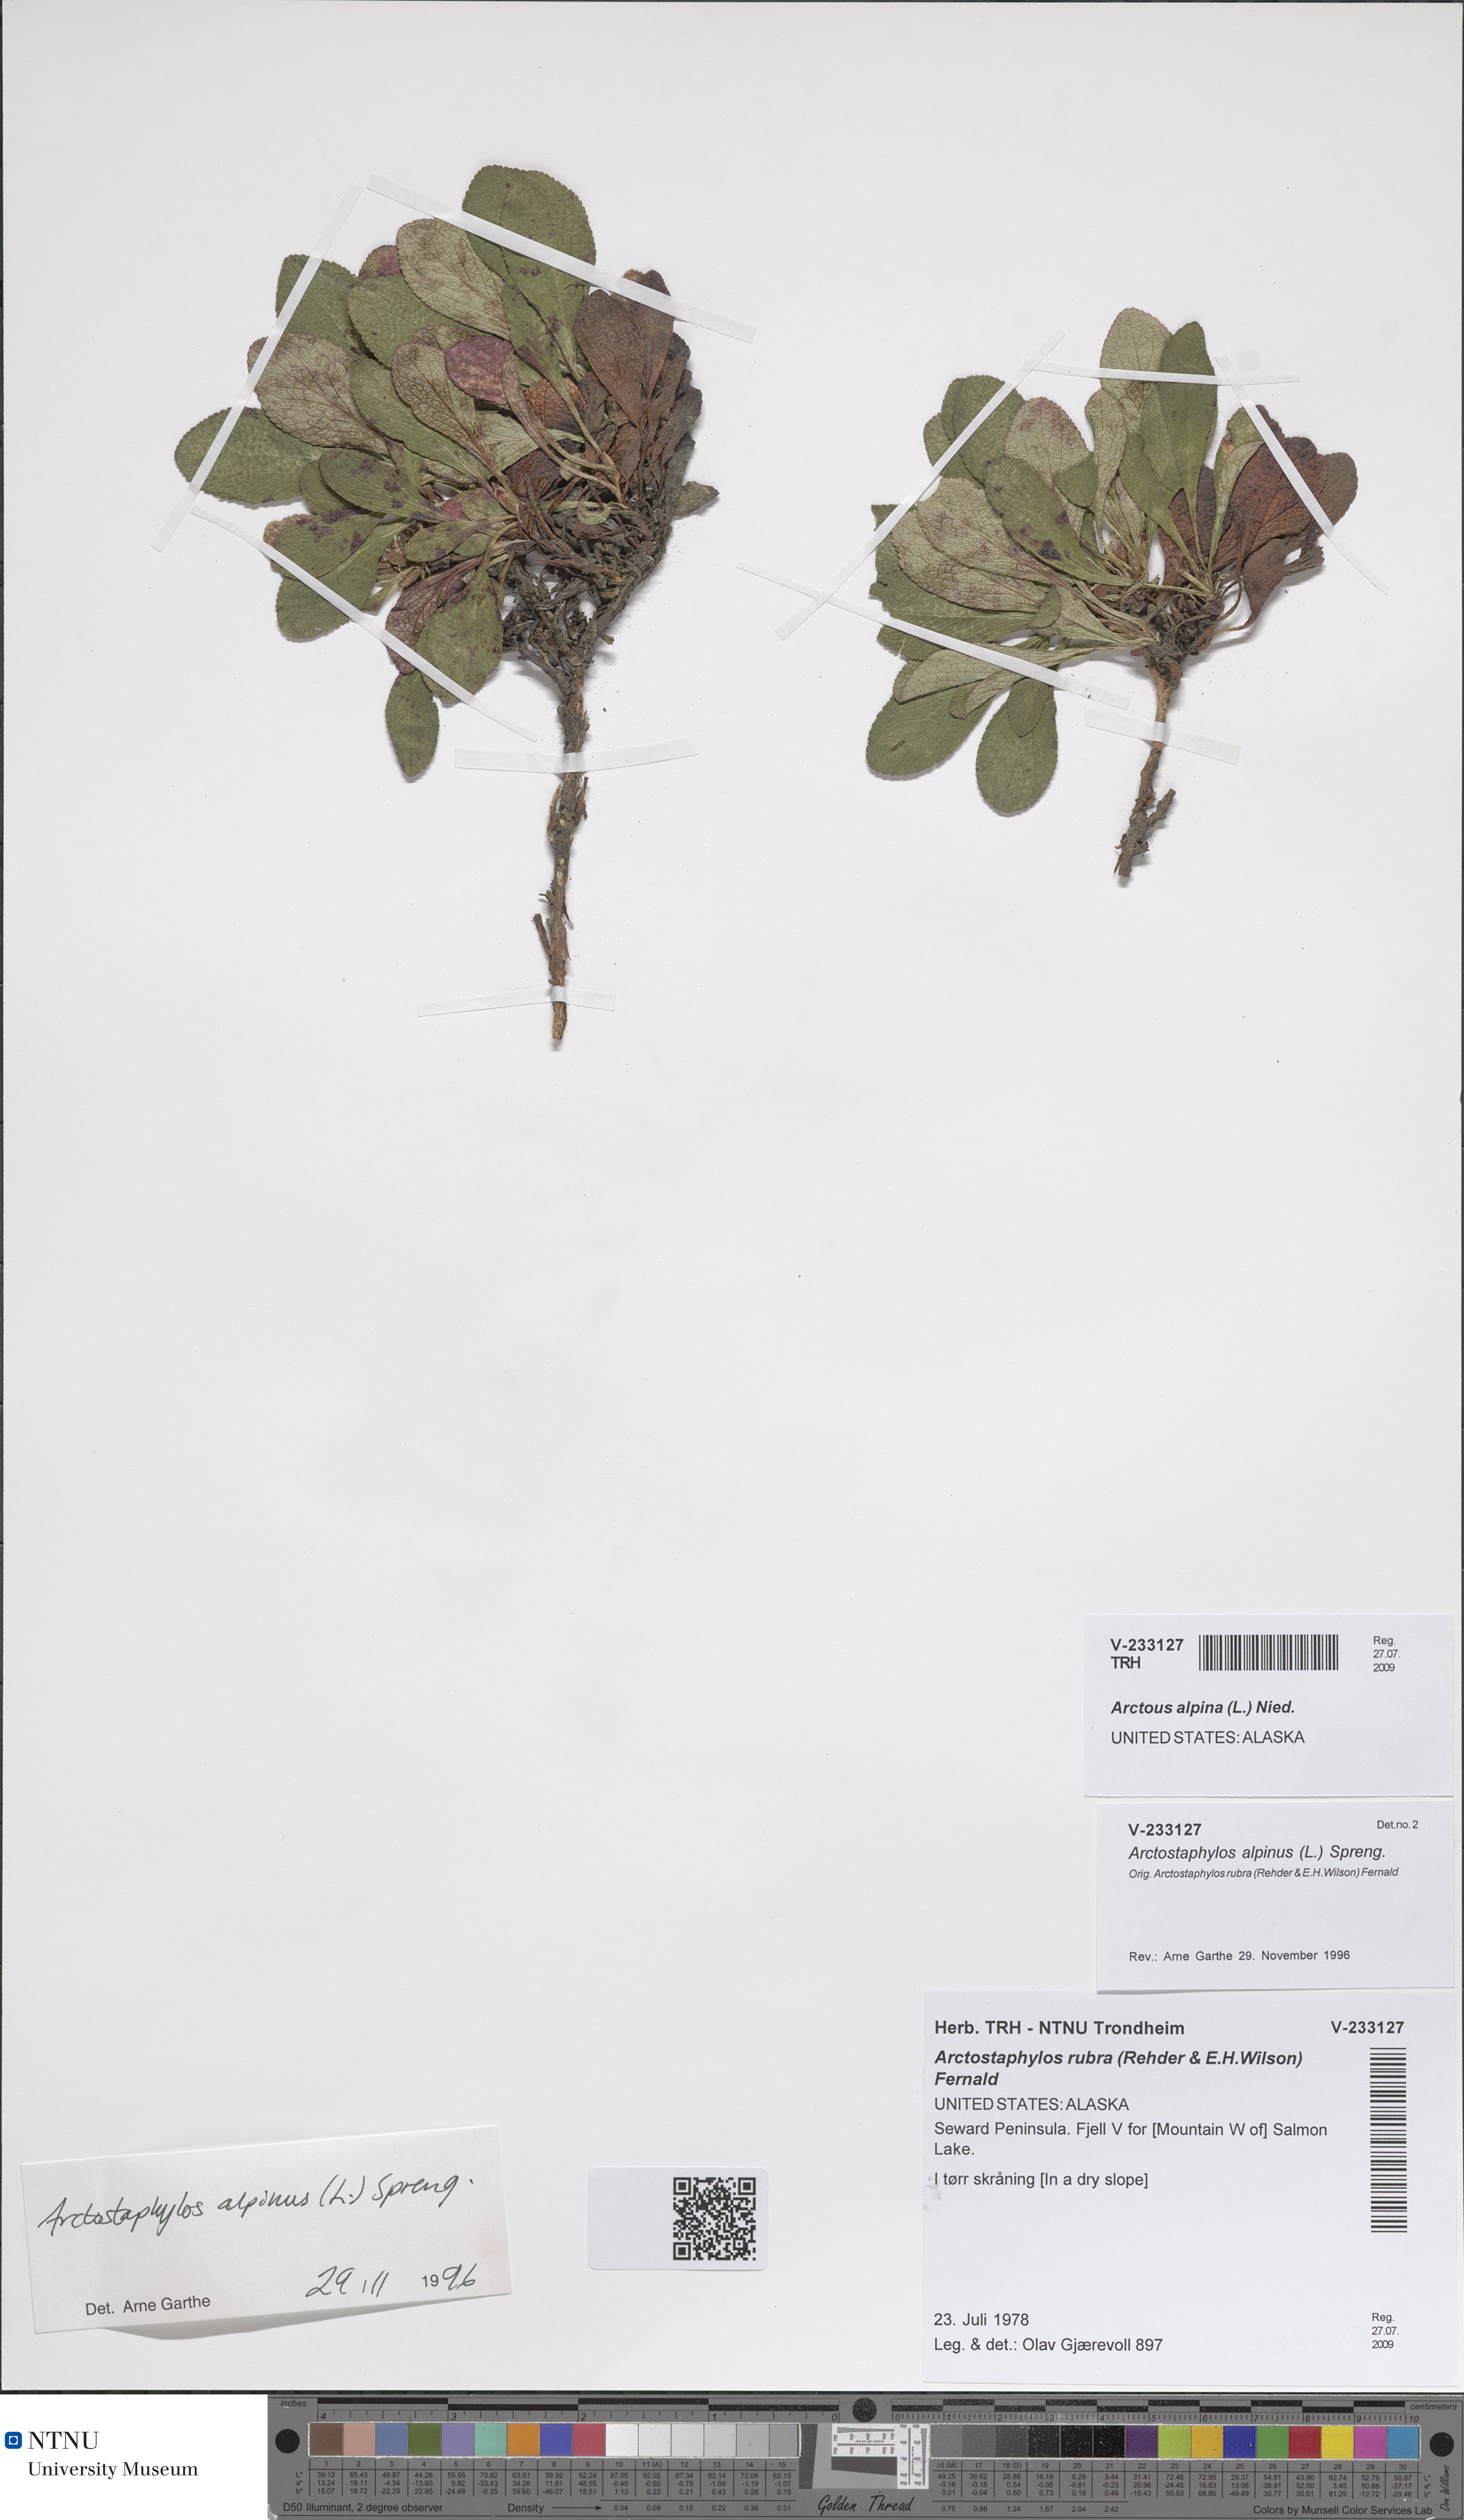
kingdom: Plantae
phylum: Tracheophyta
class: Magnoliopsida
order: Ericales
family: Ericaceae
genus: Arctostaphylos
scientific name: Arctostaphylos alpinus
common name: Alpine bearberry
